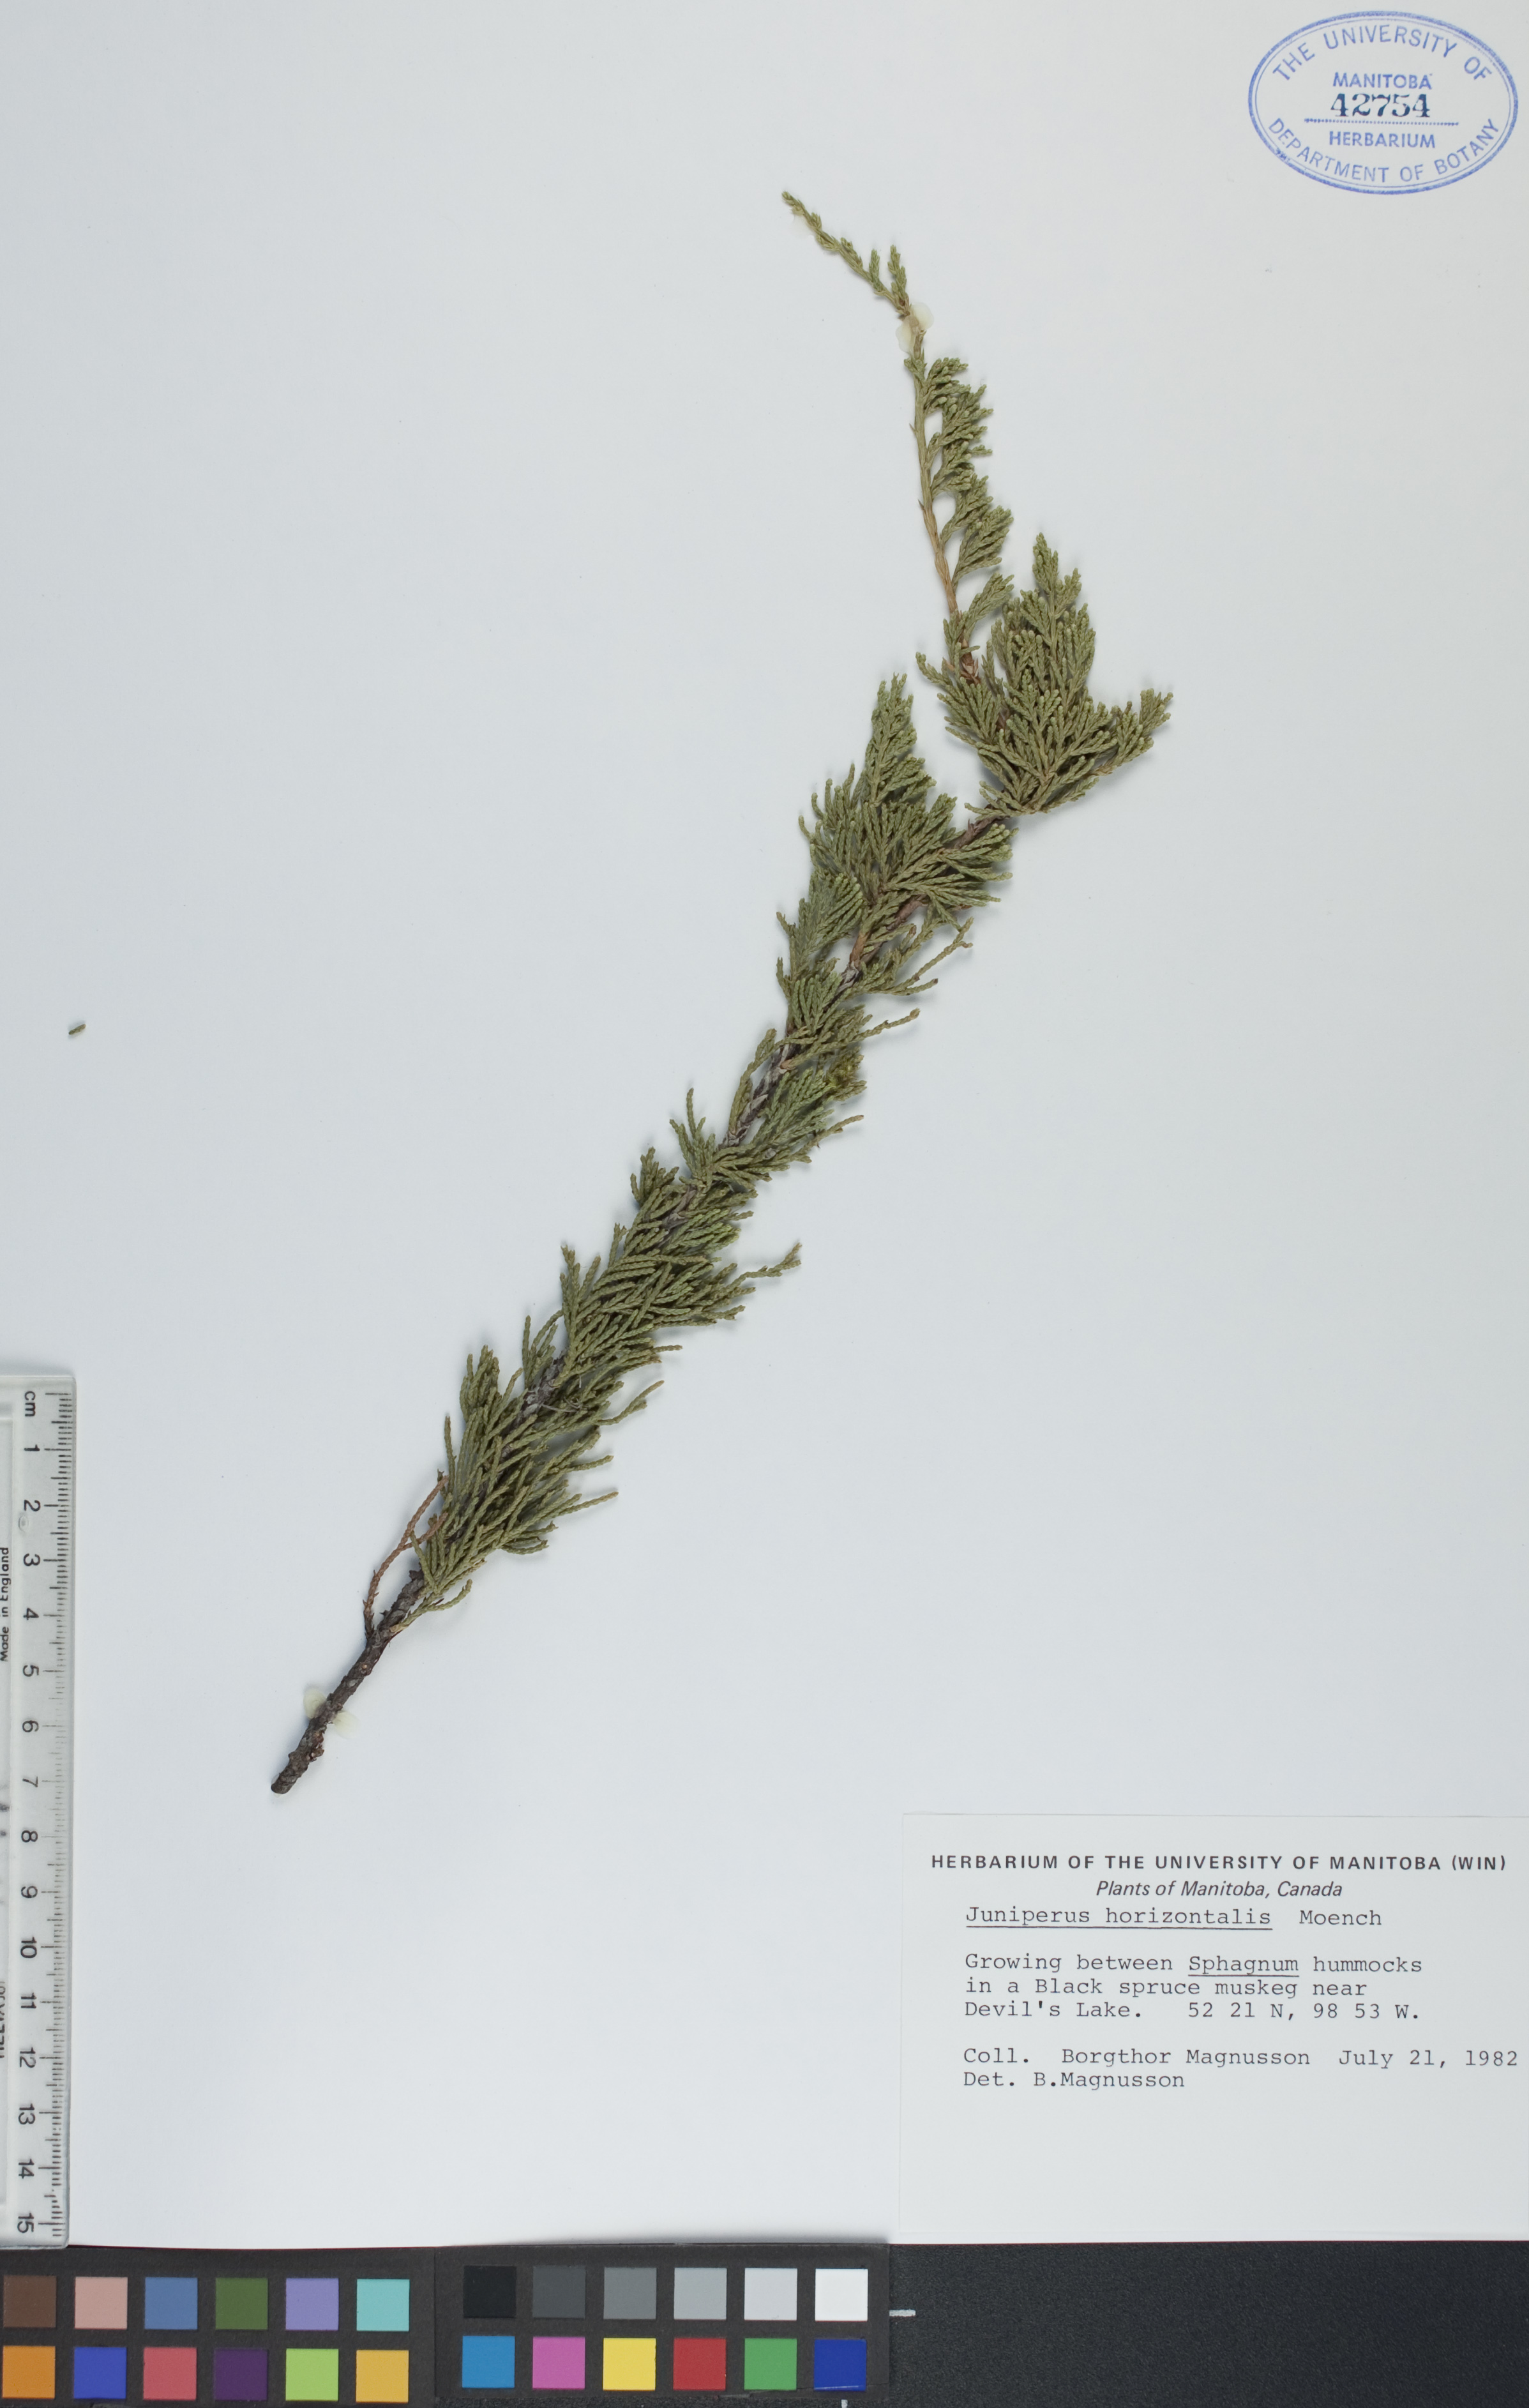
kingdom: Plantae
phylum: Tracheophyta
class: Pinopsida
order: Pinales
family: Cupressaceae
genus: Juniperus
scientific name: Juniperus horizontalis
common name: Creeping juniper
